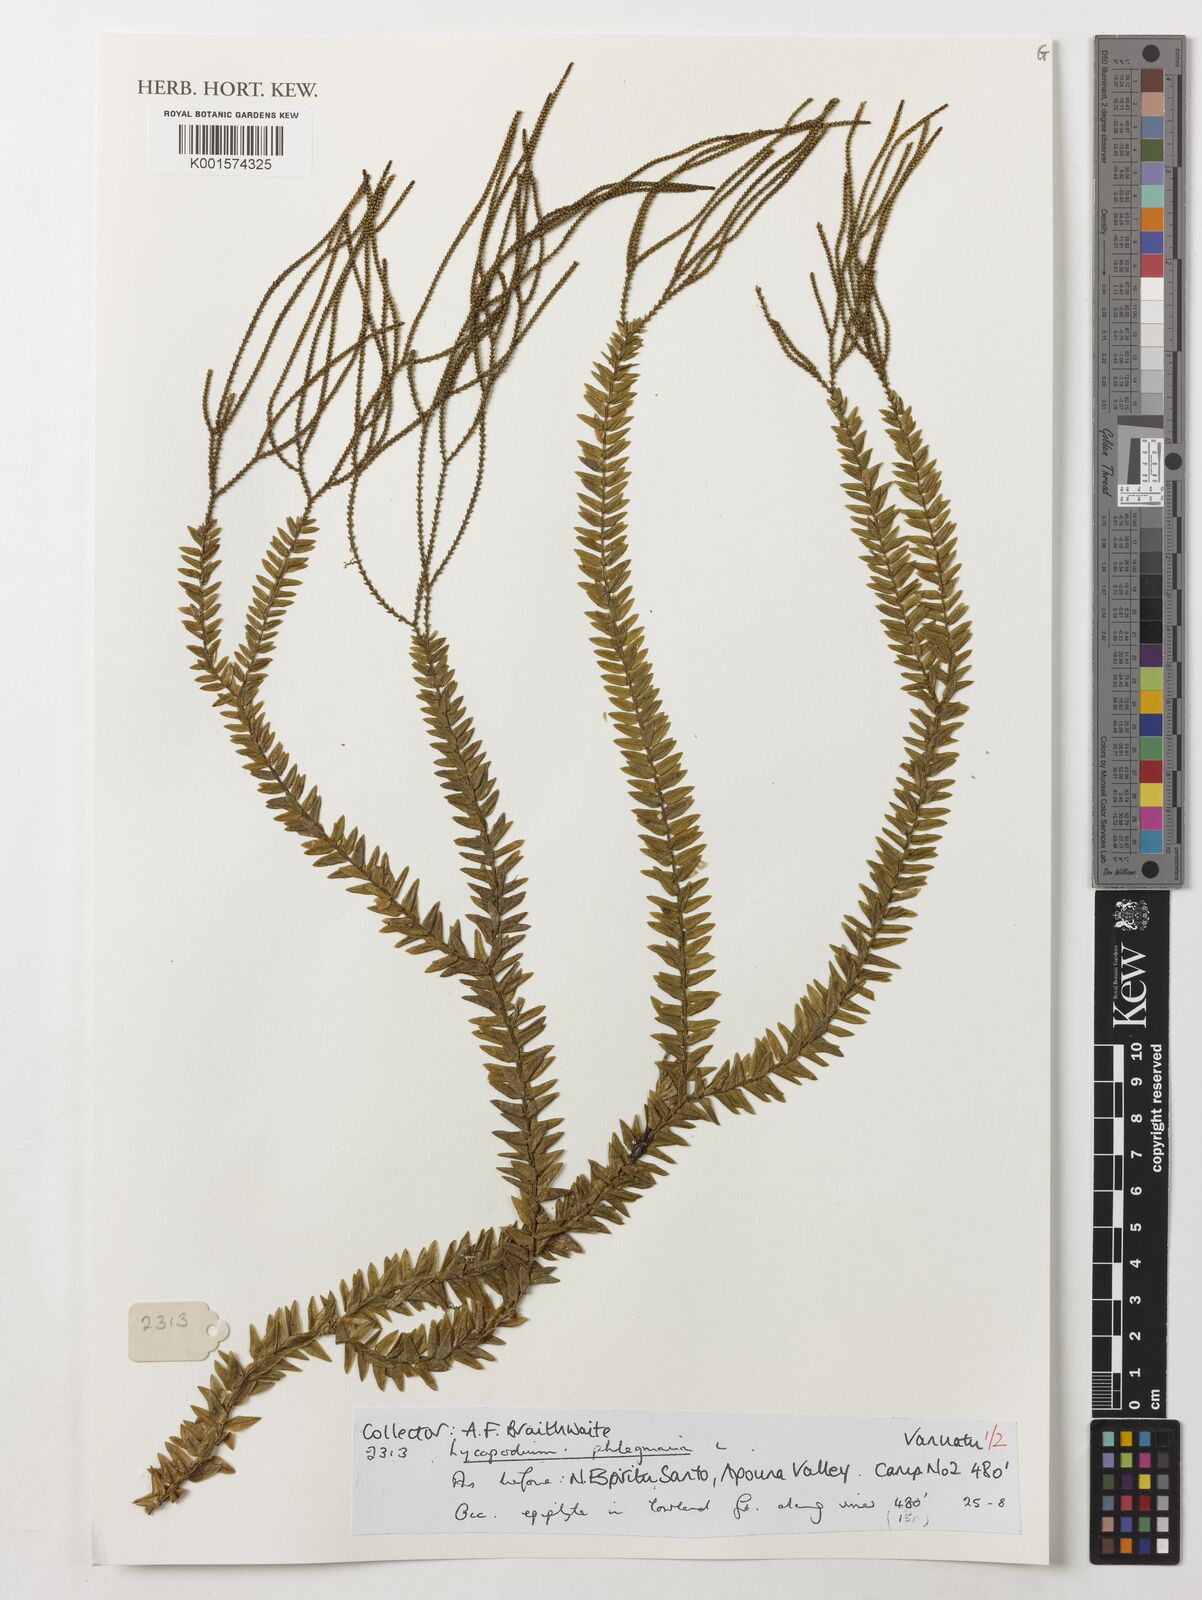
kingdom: Plantae
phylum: Tracheophyta
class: Lycopodiopsida
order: Lycopodiales
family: Lycopodiaceae
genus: Phlegmariurus
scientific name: Phlegmariurus phlegmaria
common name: Coarse tassel-fern
